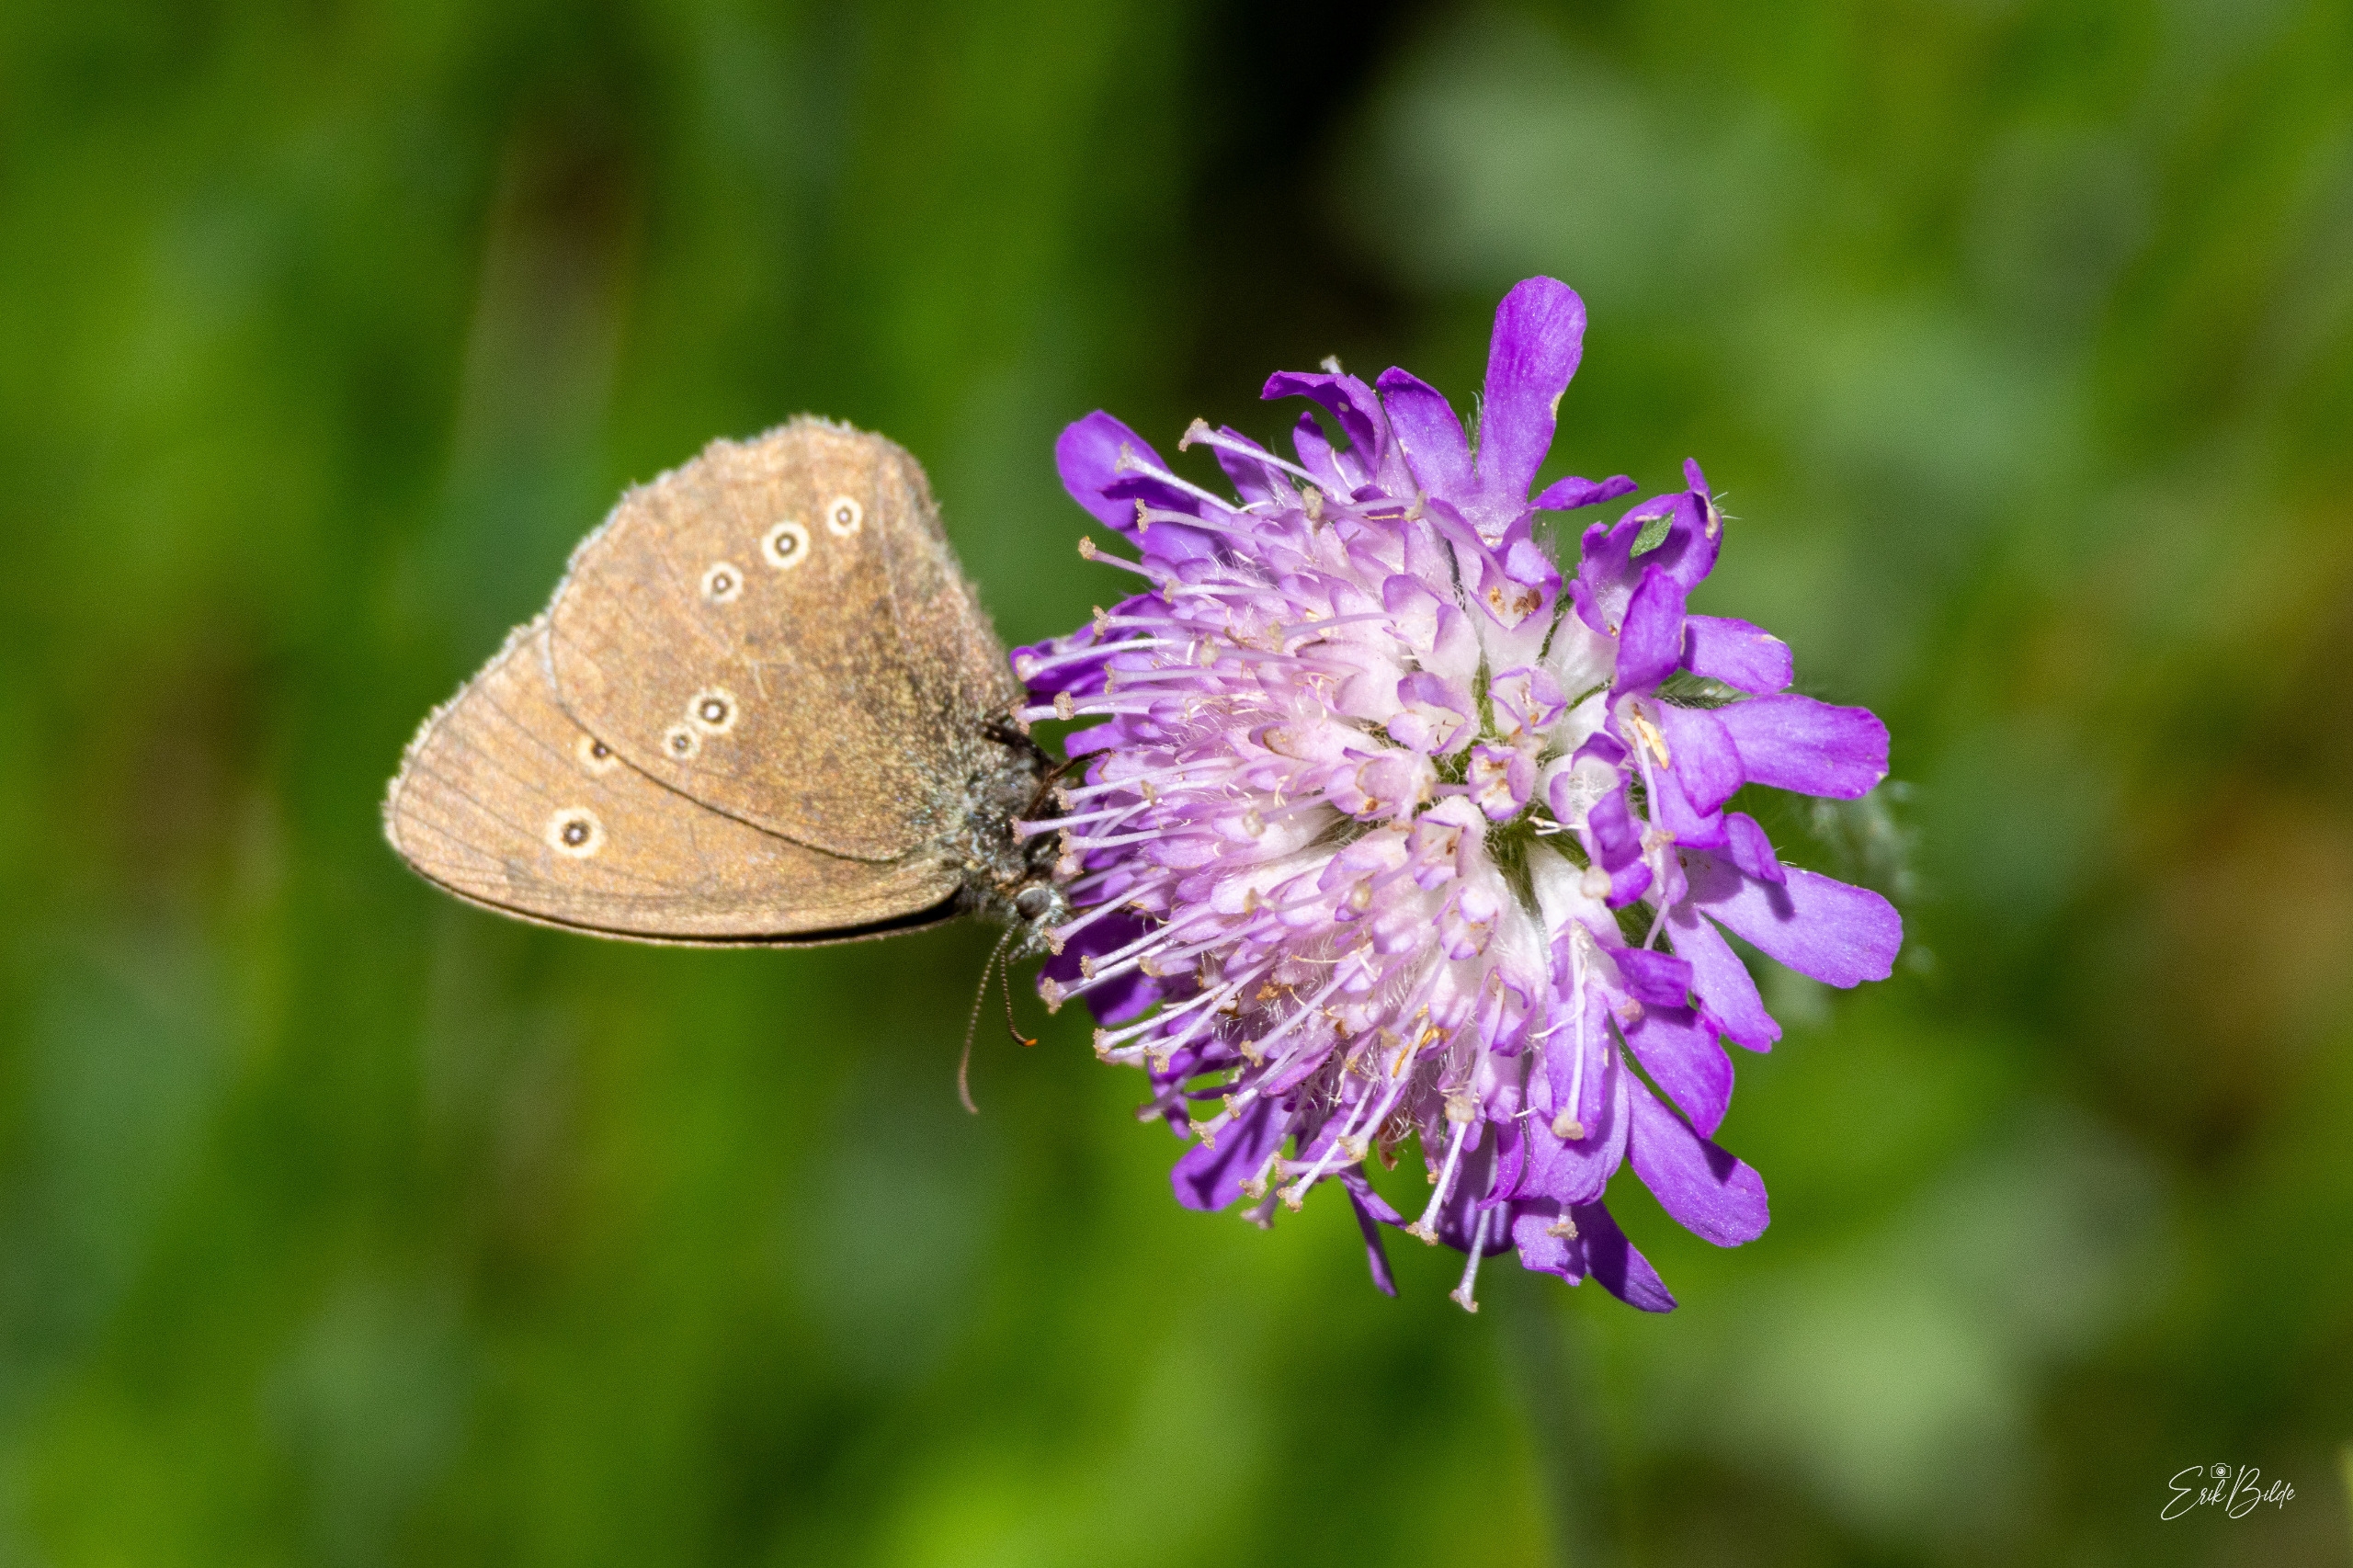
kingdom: Animalia
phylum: Arthropoda
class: Insecta
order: Lepidoptera
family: Nymphalidae
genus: Aphantopus
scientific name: Aphantopus hyperantus
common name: Engrandøje
